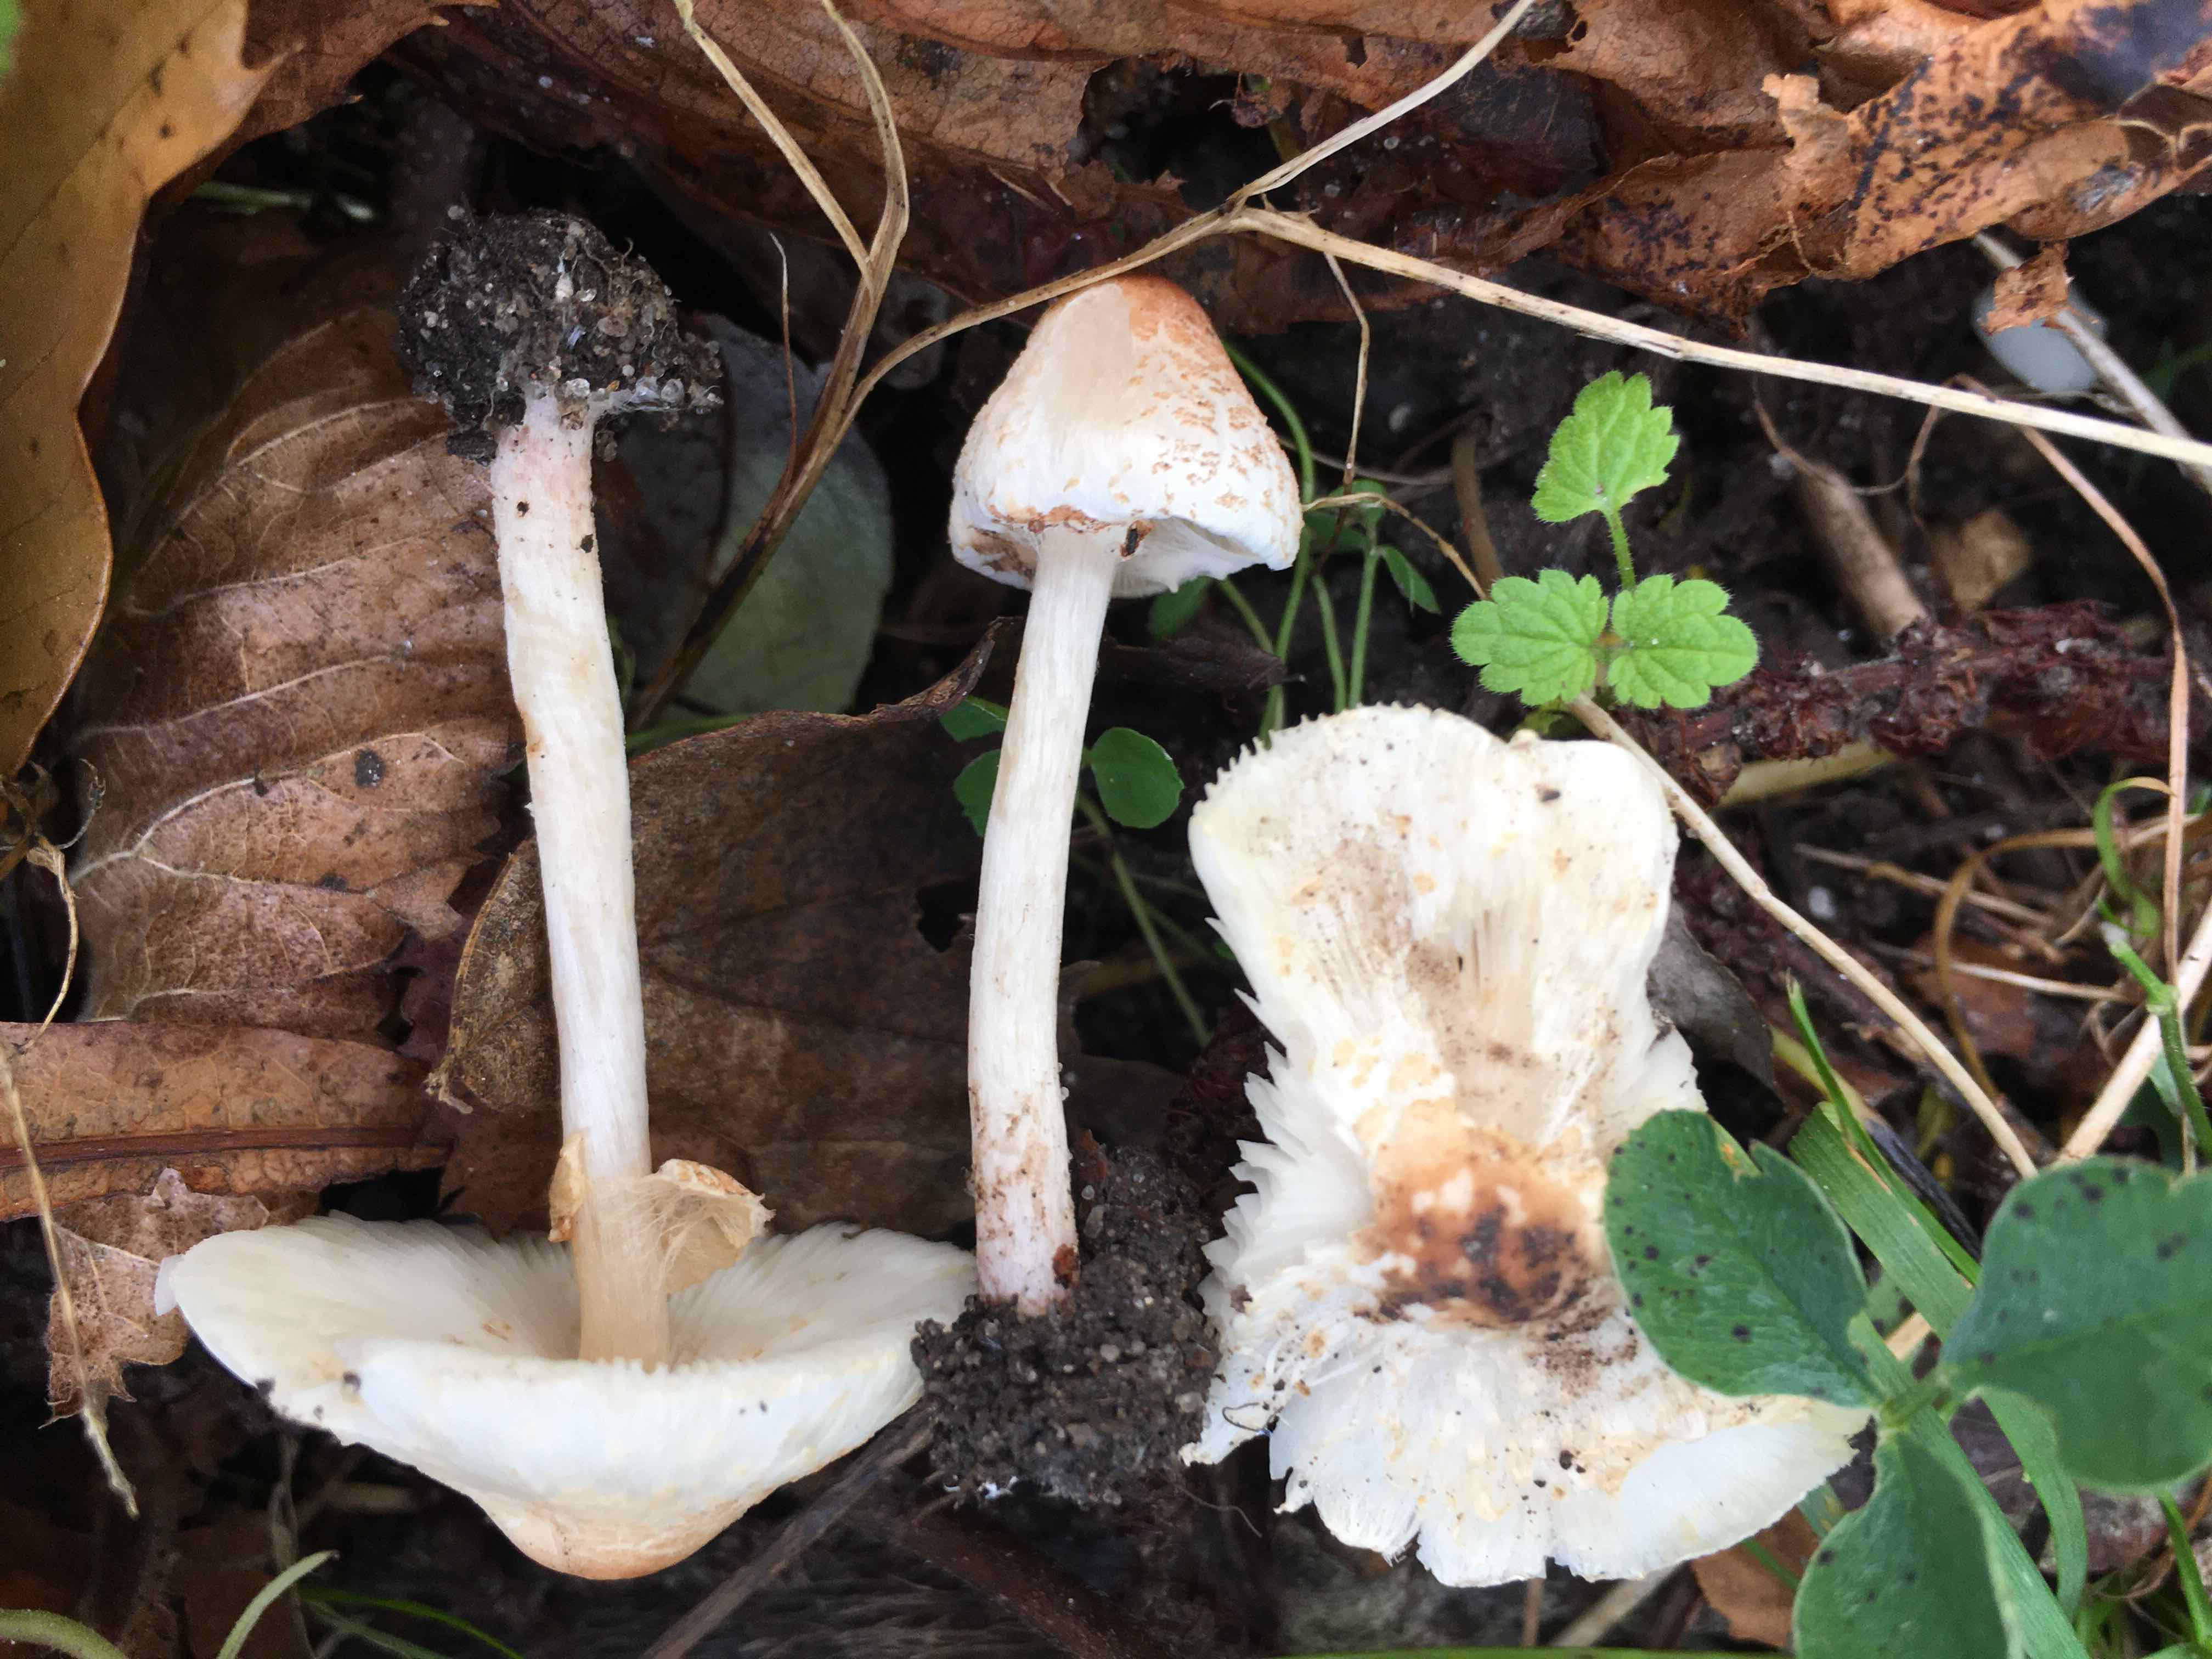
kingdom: Fungi
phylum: Basidiomycota
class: Agaricomycetes
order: Agaricales
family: Agaricaceae
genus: Lepiota
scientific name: Lepiota cristata
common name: stinkende parasolhat
